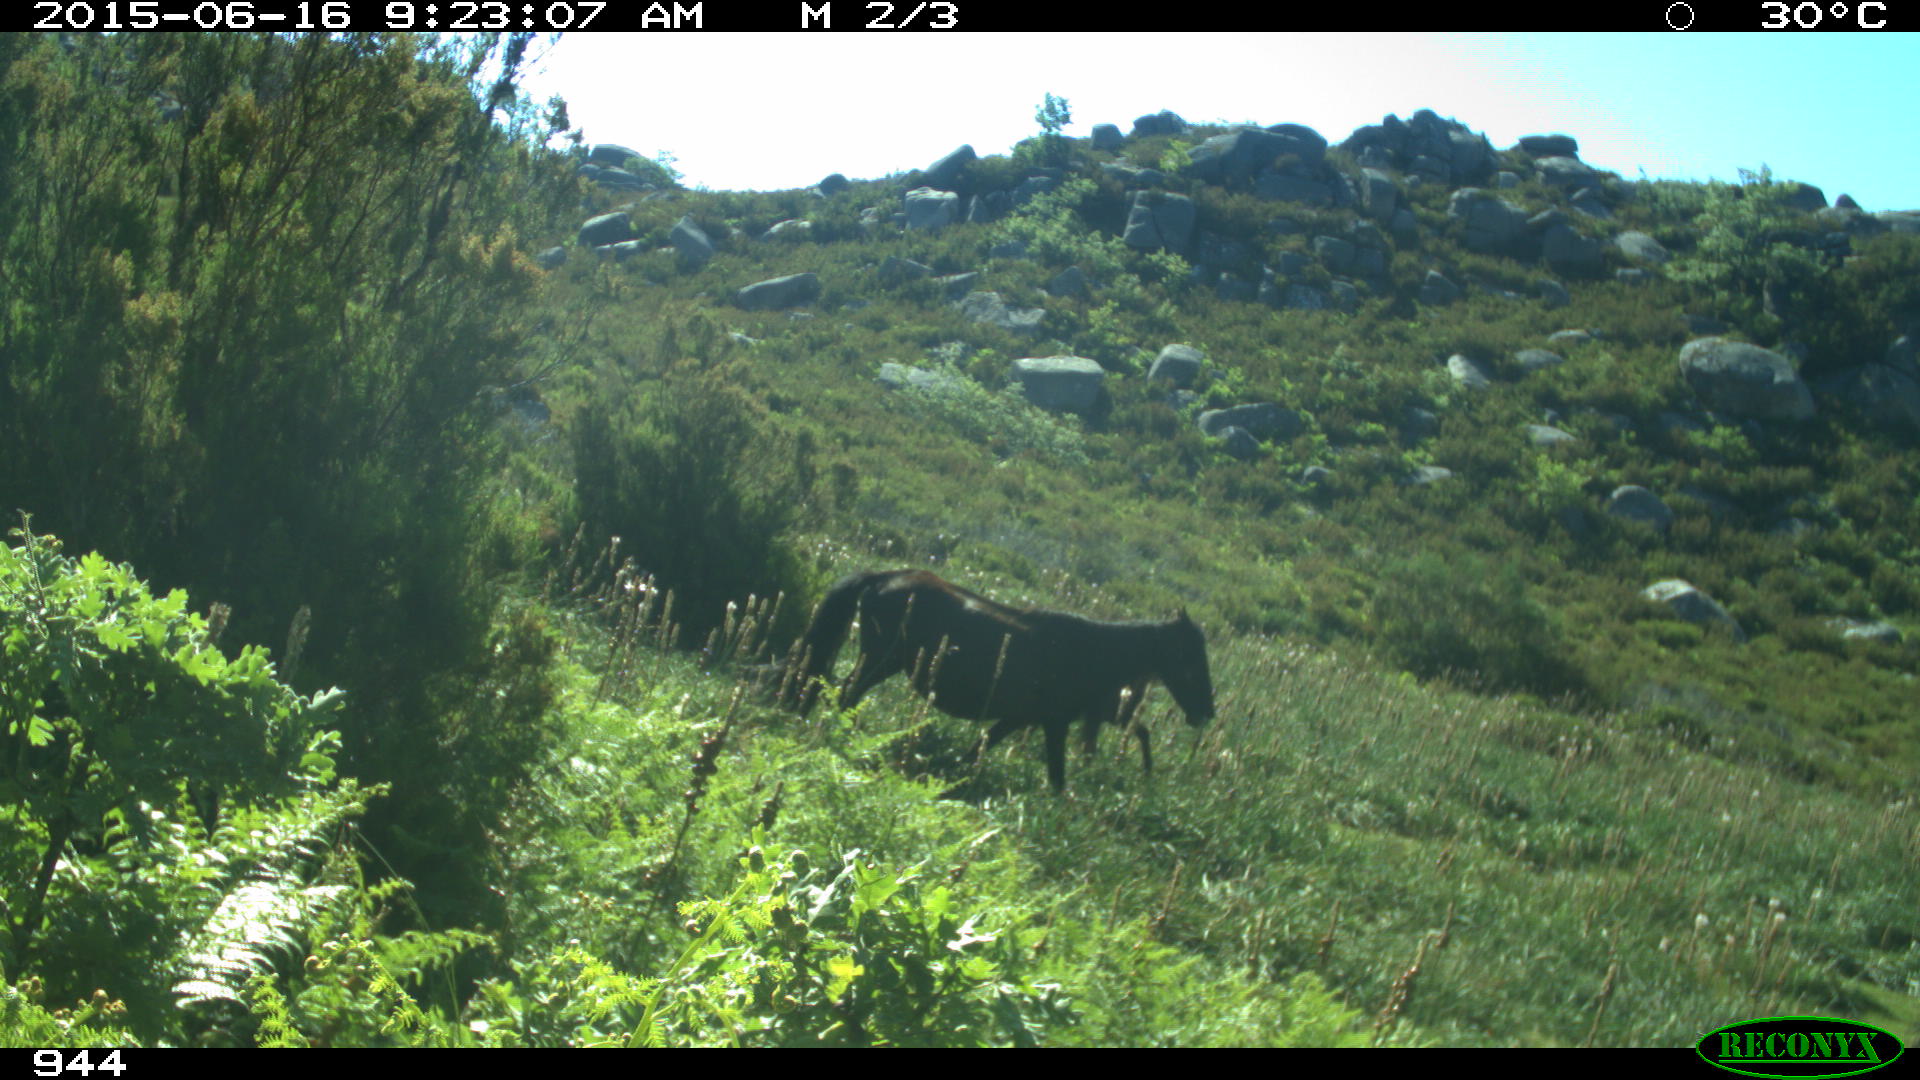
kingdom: Animalia
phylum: Chordata
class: Mammalia
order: Perissodactyla
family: Equidae
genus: Equus
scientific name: Equus caballus
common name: Horse
